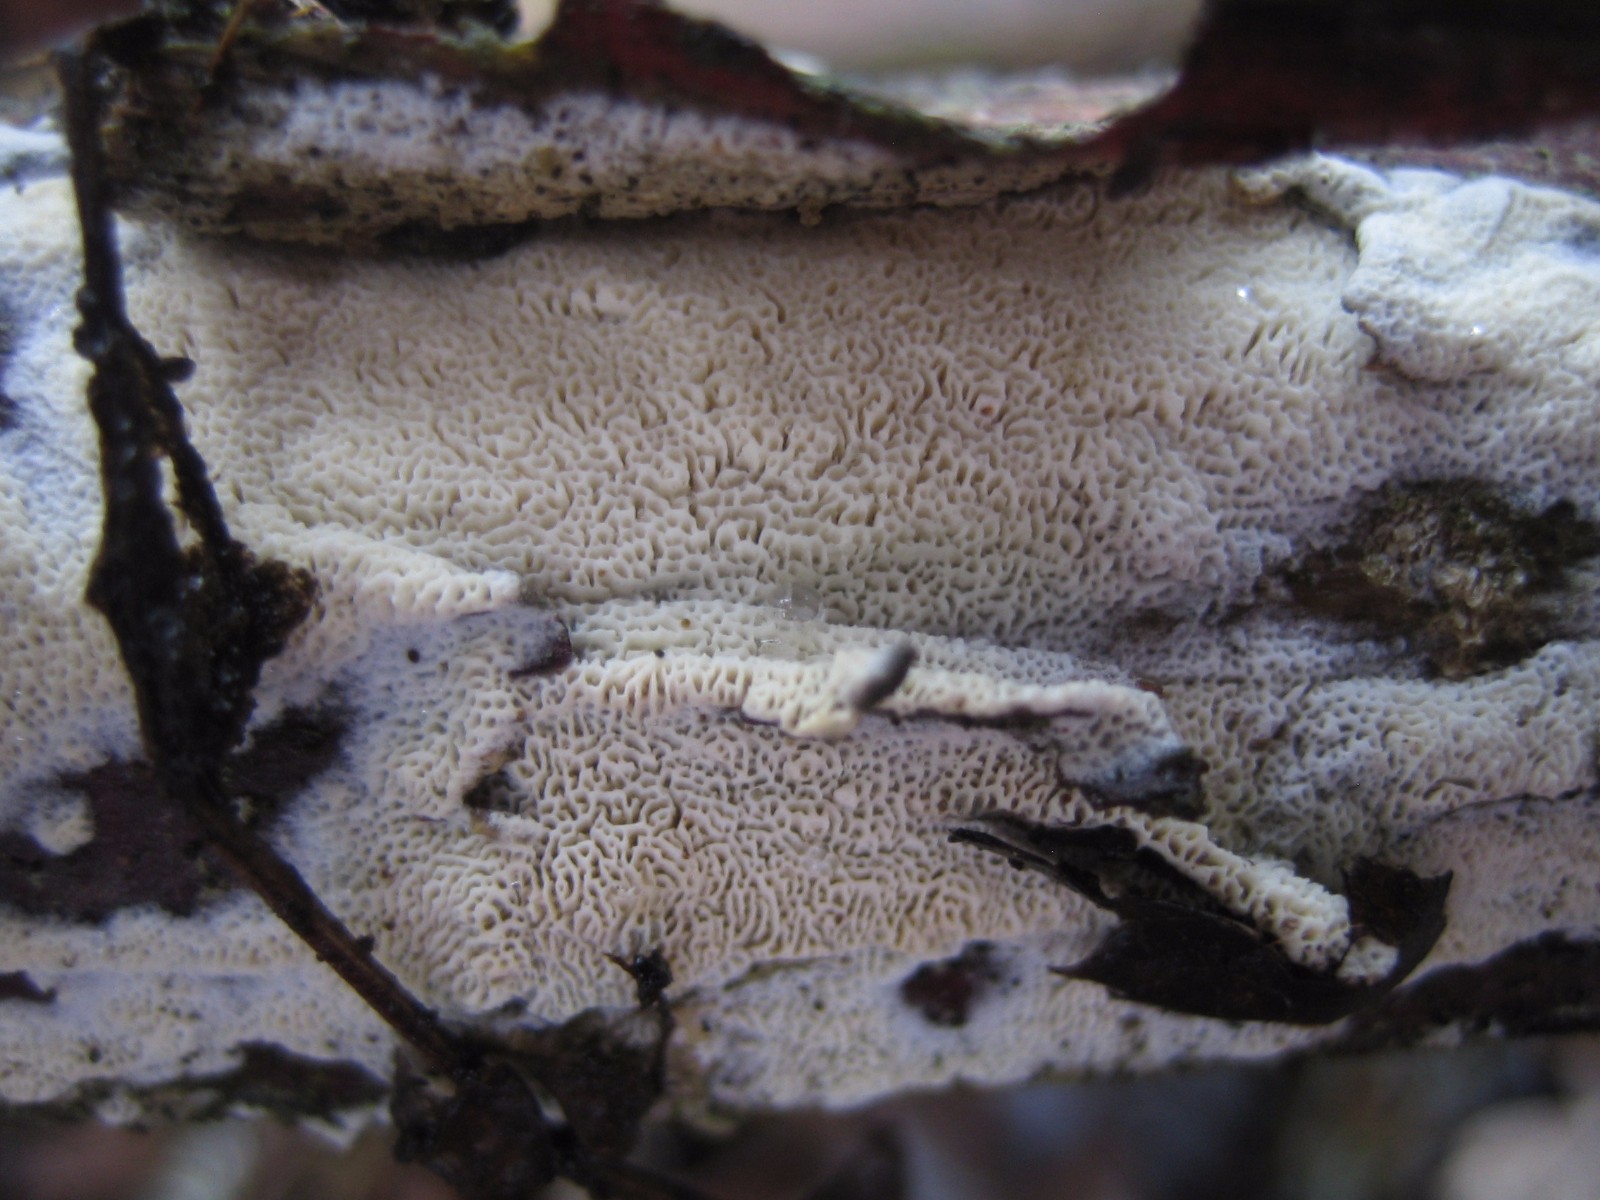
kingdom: Fungi
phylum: Basidiomycota
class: Agaricomycetes
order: Hymenochaetales
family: Schizoporaceae
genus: Xylodon
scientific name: Xylodon subtropicus
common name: labyrint-tandsvamp
